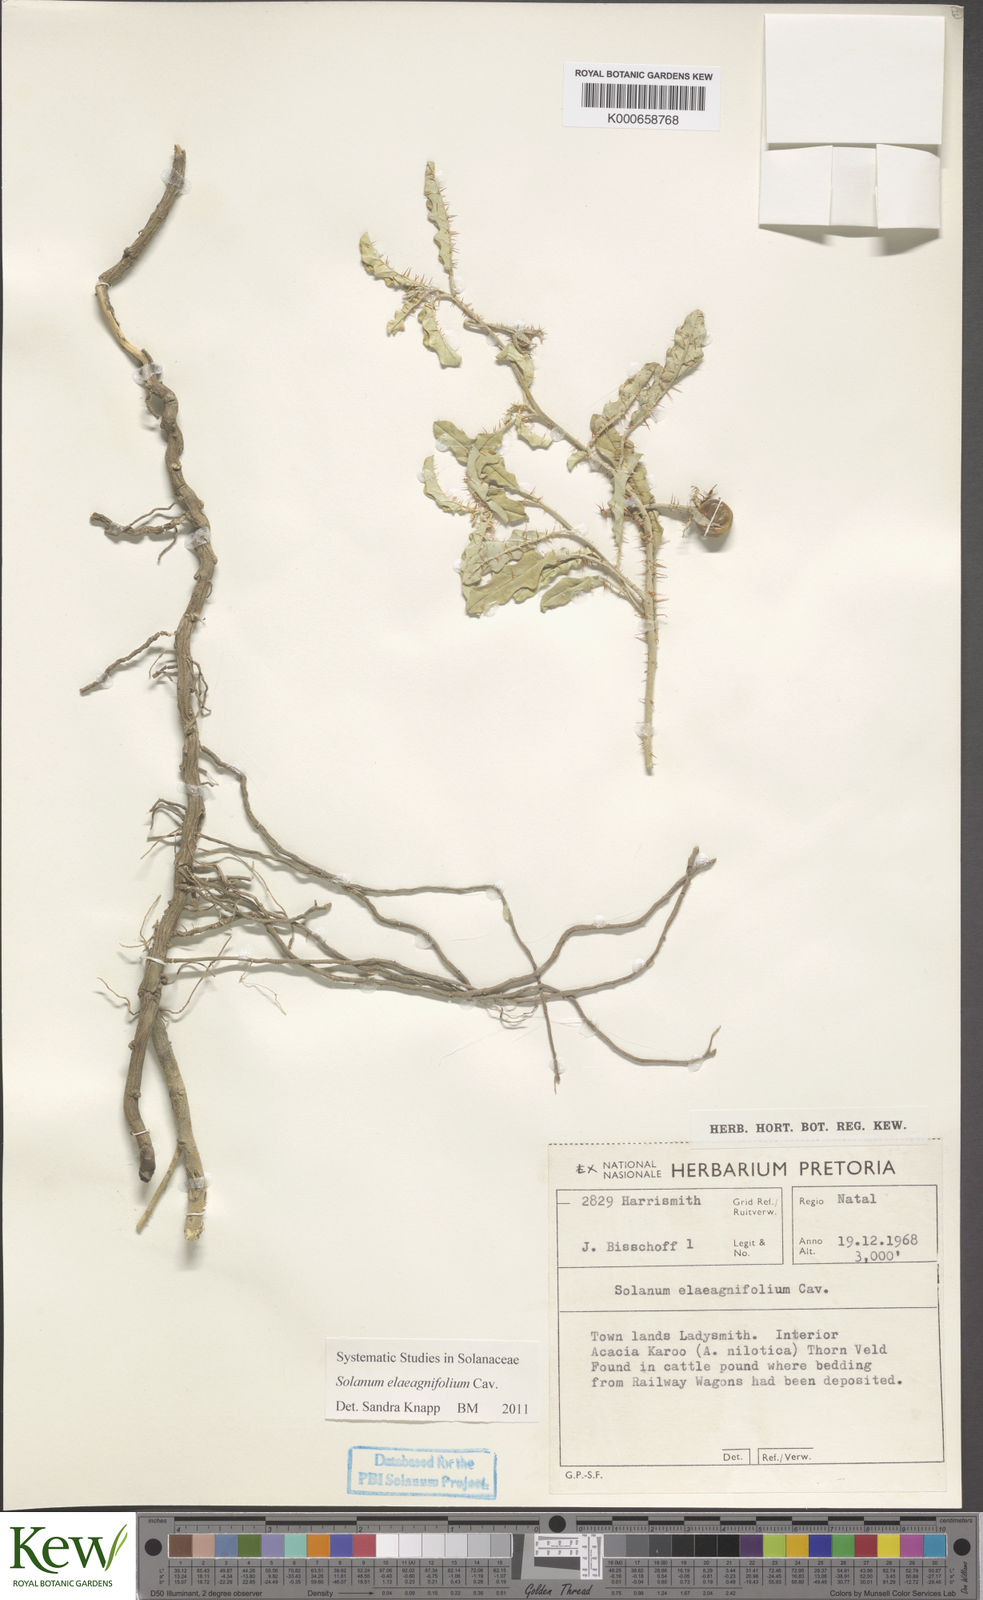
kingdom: Plantae
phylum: Tracheophyta
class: Magnoliopsida
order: Solanales
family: Solanaceae
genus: Solanum
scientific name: Solanum elaeagnifolium
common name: Silverleaf nightshade
